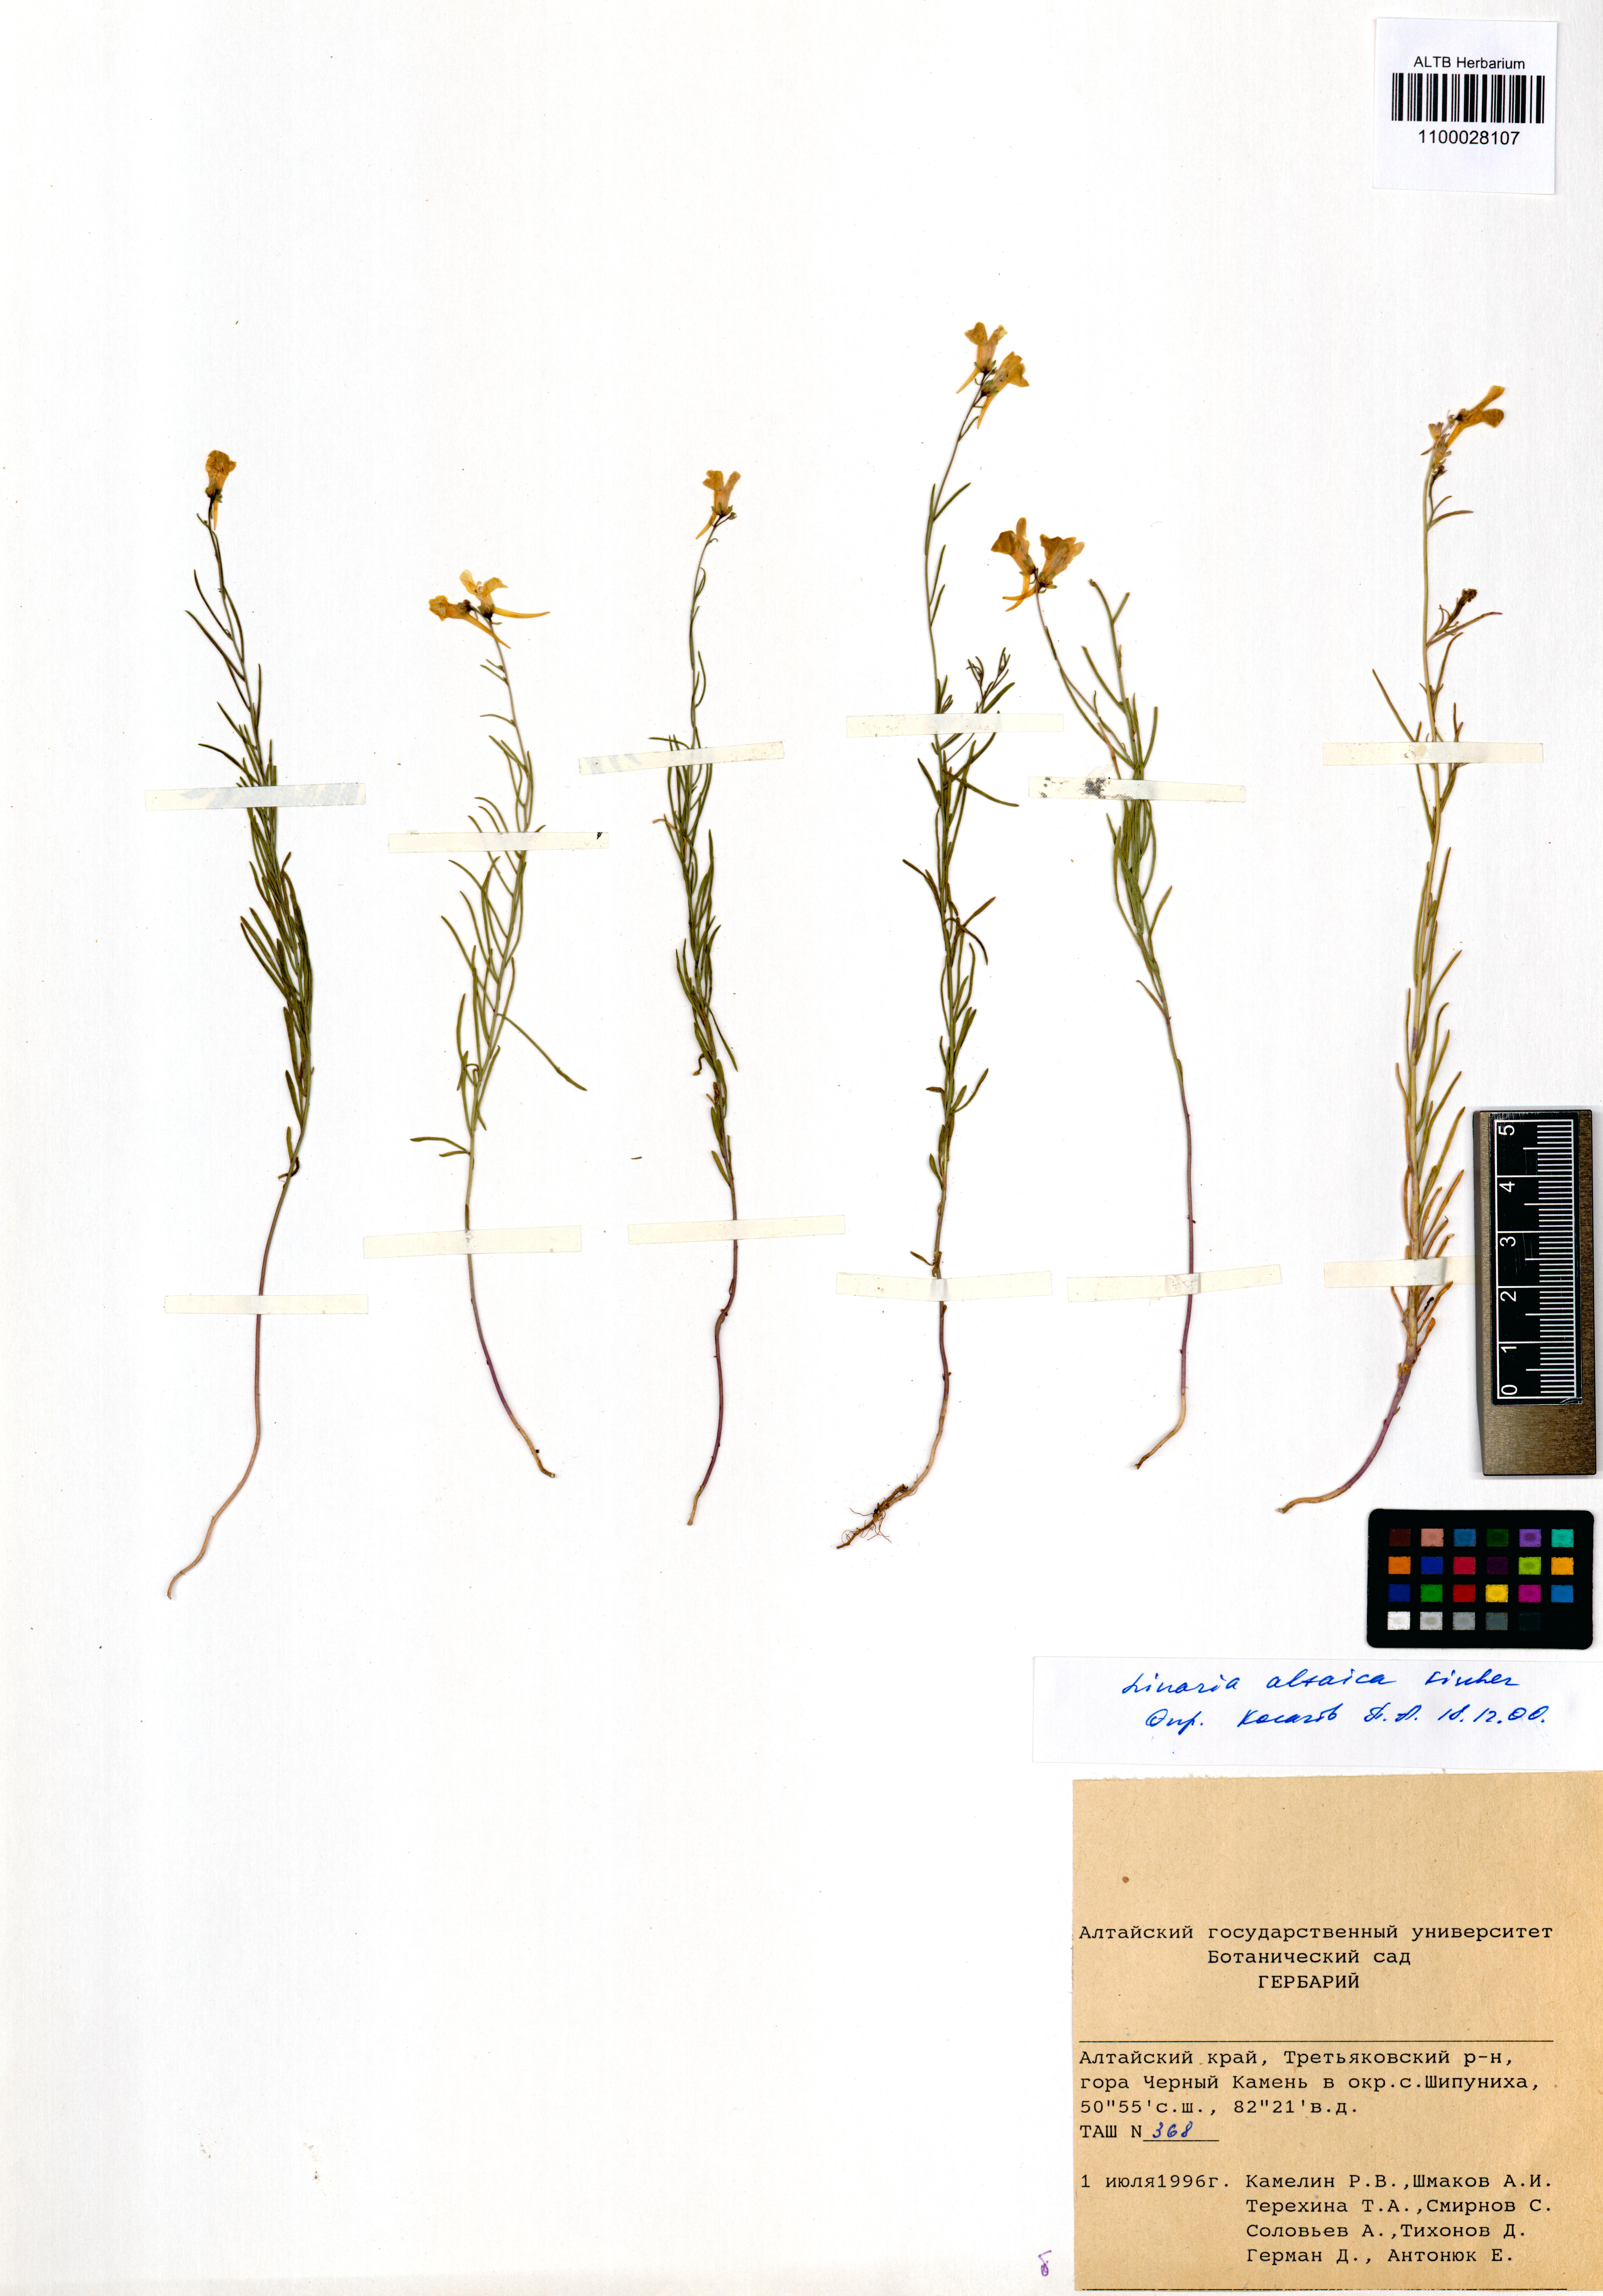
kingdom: Plantae
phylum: Tracheophyta
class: Magnoliopsida
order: Lamiales
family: Plantaginaceae
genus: Linaria
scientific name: Linaria altaica
